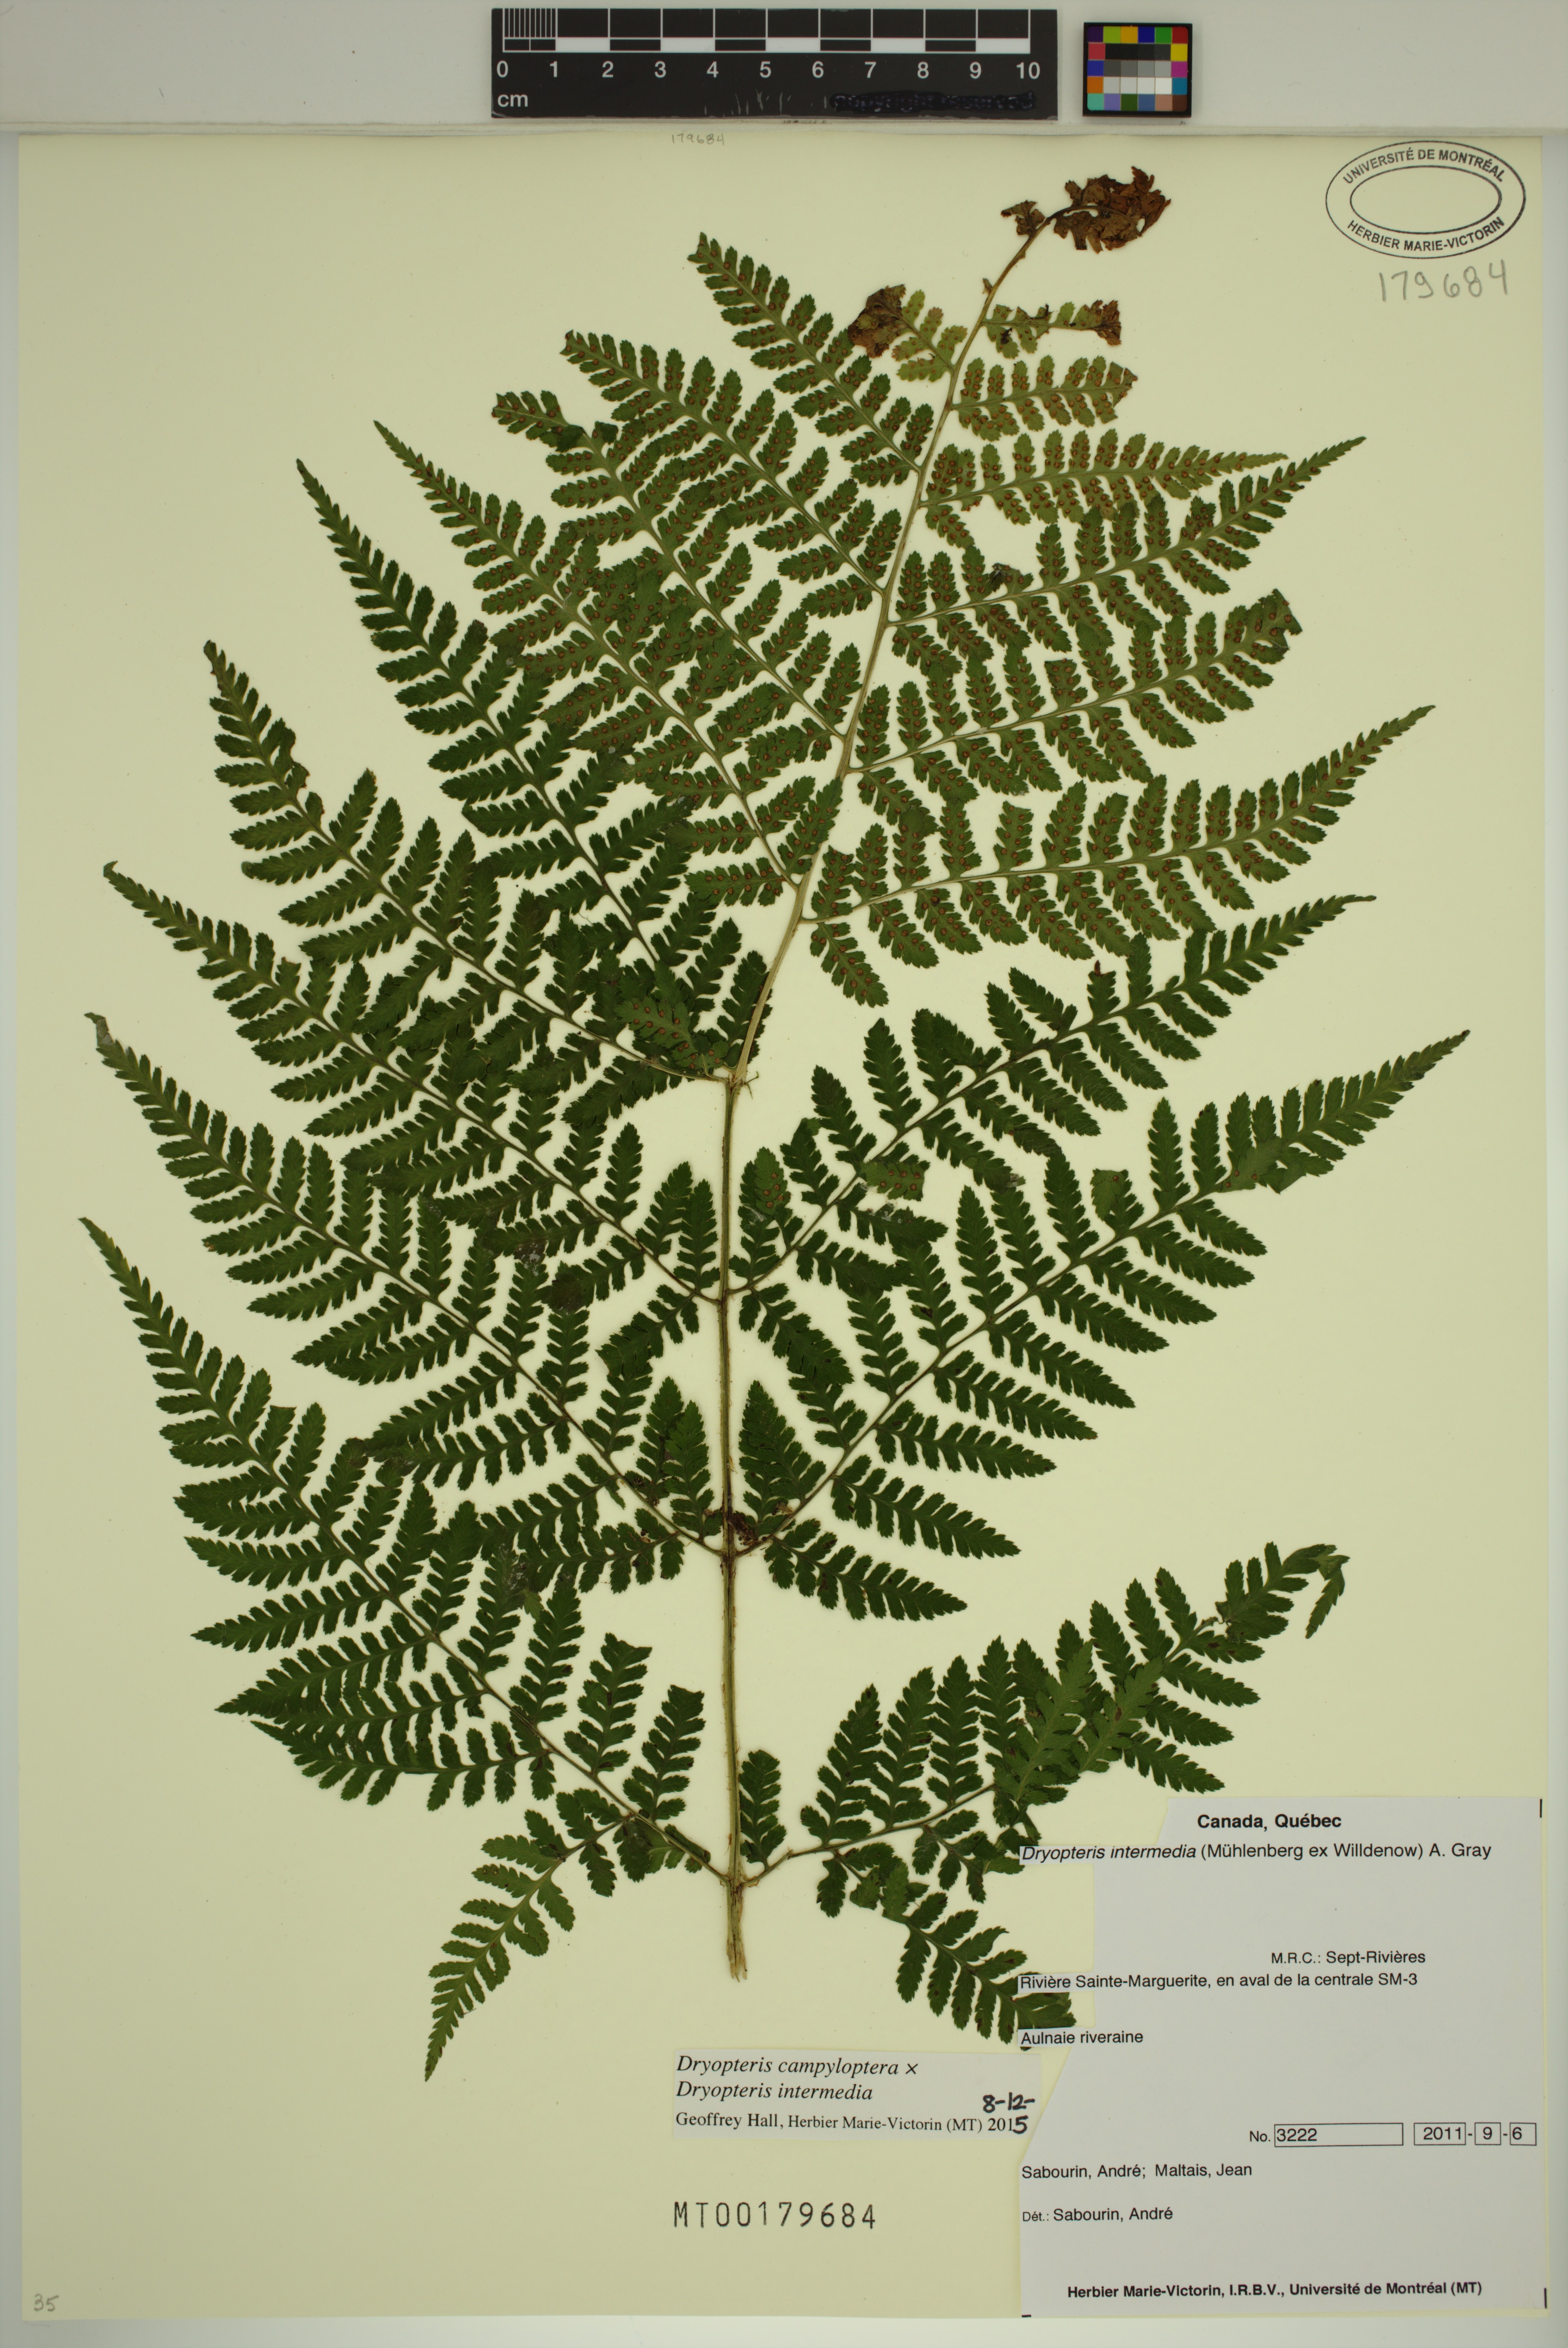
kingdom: Plantae
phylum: Tracheophyta
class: Polypodiopsida
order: Polypodiales
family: Dryopteridaceae
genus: Dryopteris
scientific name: Dryopteris campyloptera
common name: Mountain wood fern
